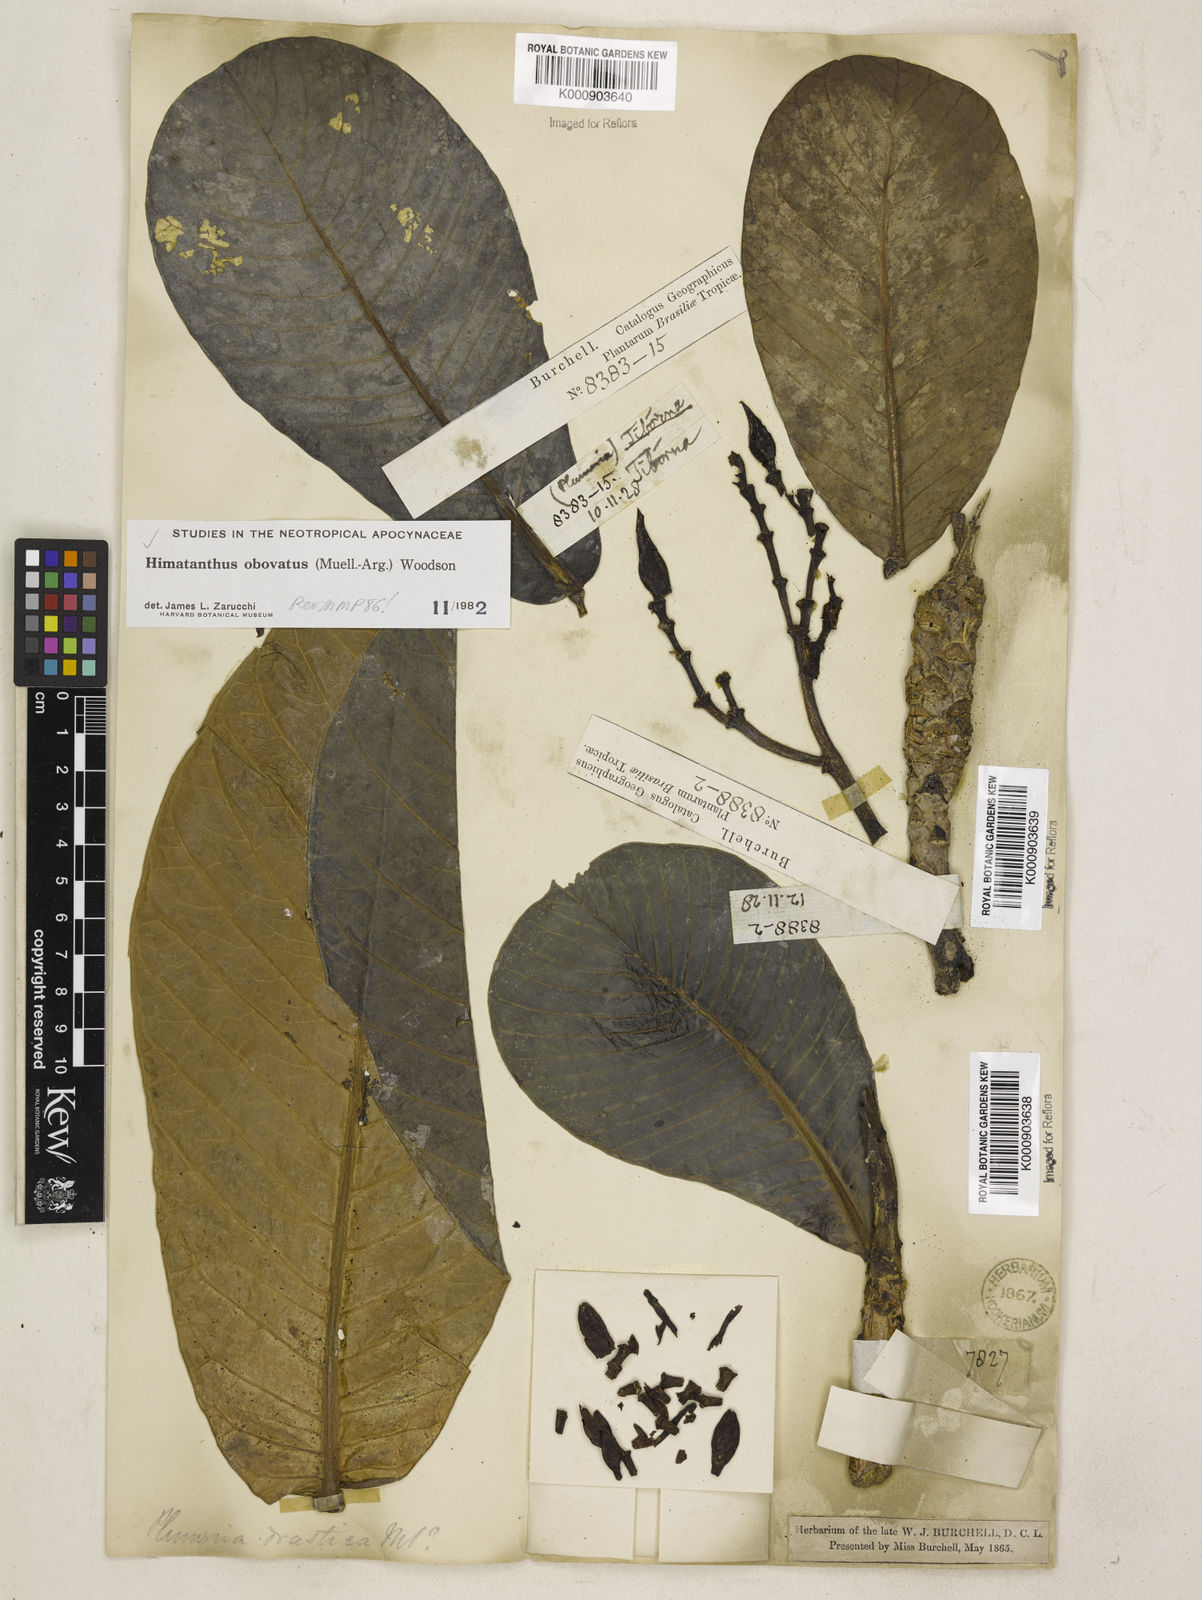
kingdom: Plantae
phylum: Tracheophyta
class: Magnoliopsida
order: Gentianales
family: Apocynaceae
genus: Himatanthus
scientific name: Himatanthus
